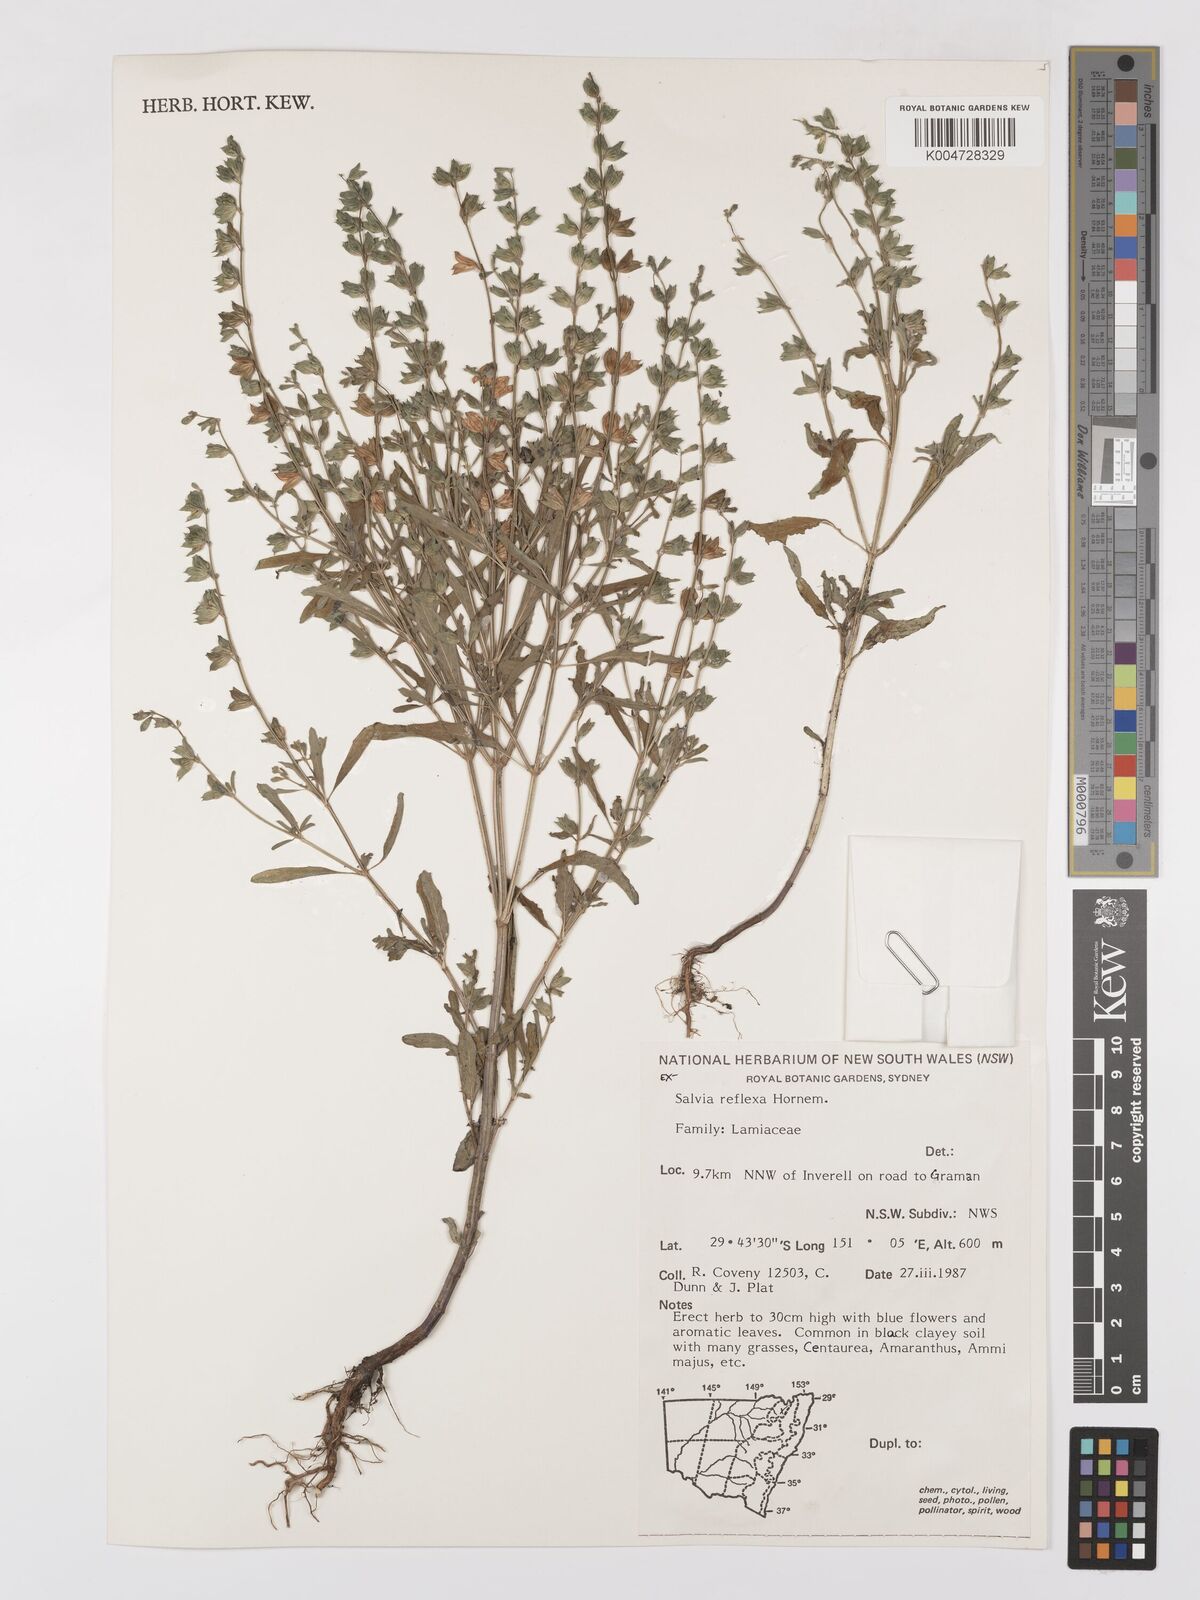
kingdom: Plantae
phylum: Tracheophyta
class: Magnoliopsida
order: Lamiales
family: Lamiaceae
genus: Salvia
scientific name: Salvia reflexa
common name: Mintweed
